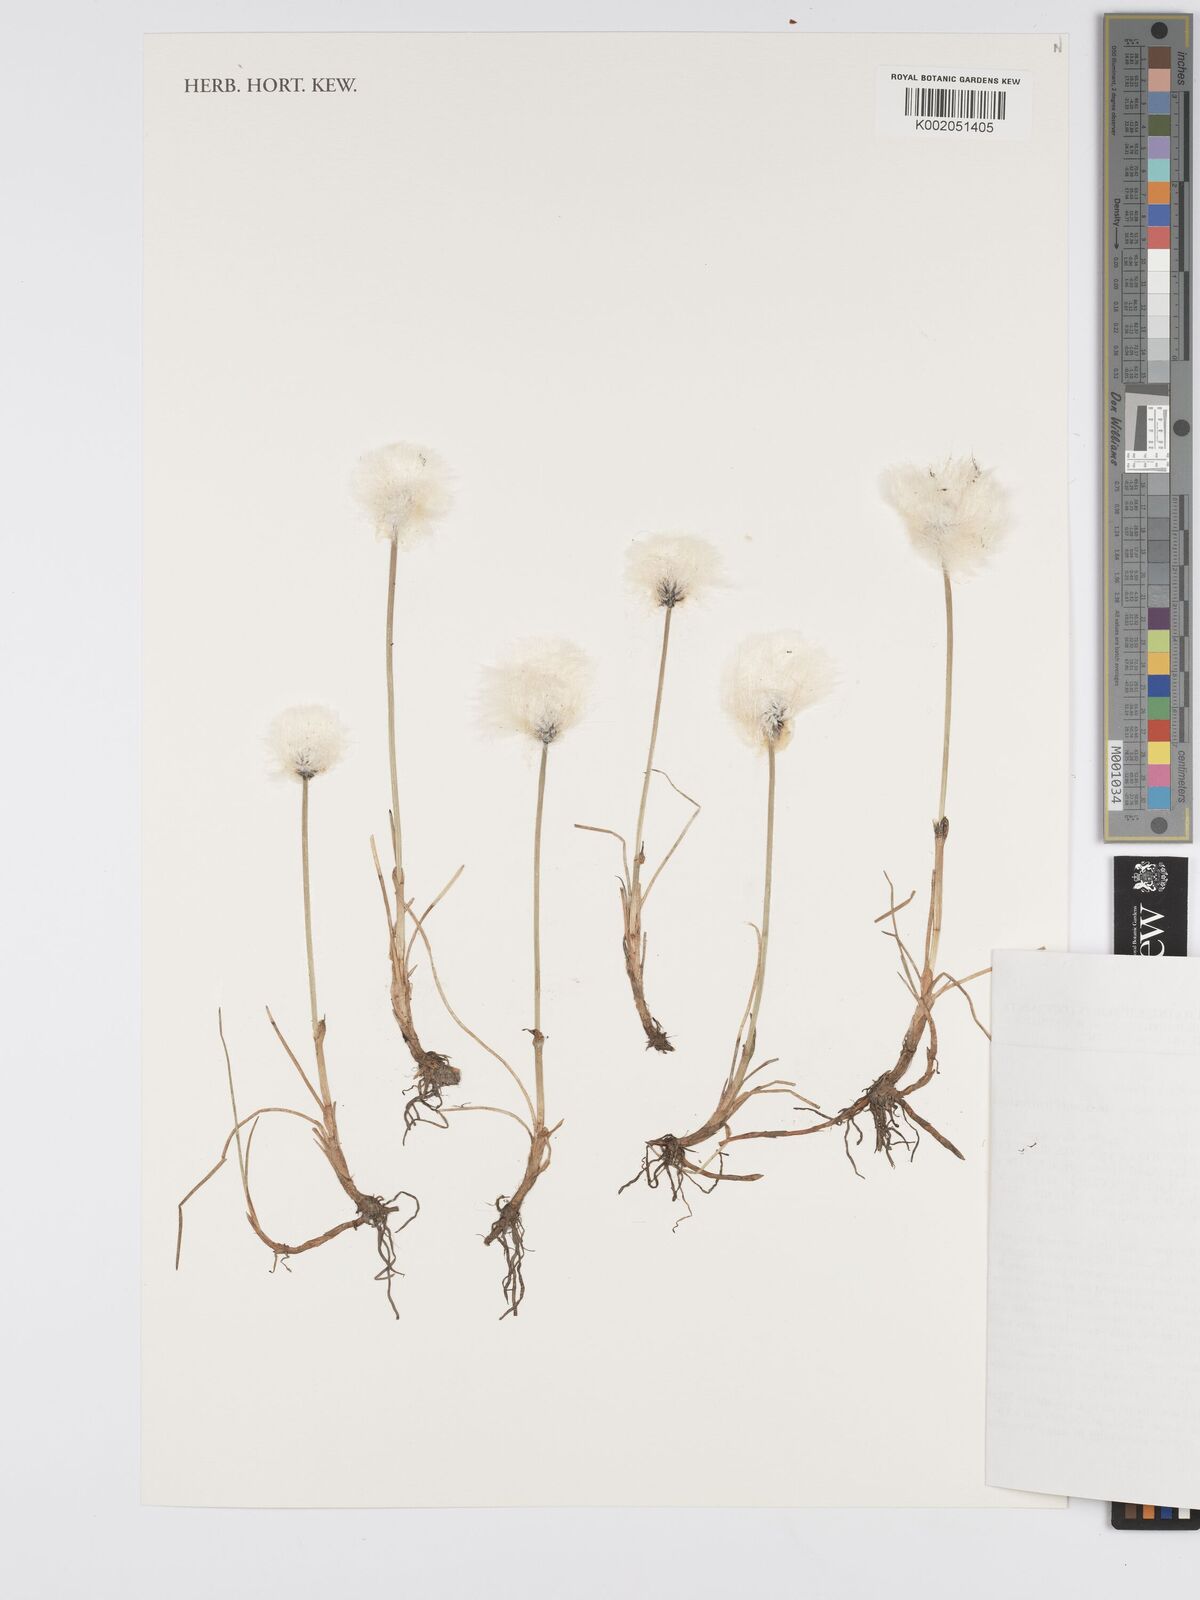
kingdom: Plantae
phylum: Tracheophyta
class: Liliopsida
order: Poales
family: Cyperaceae
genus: Eriophorum
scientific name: Eriophorum scheuchzeri
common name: Scheuchzer's cottongrass
